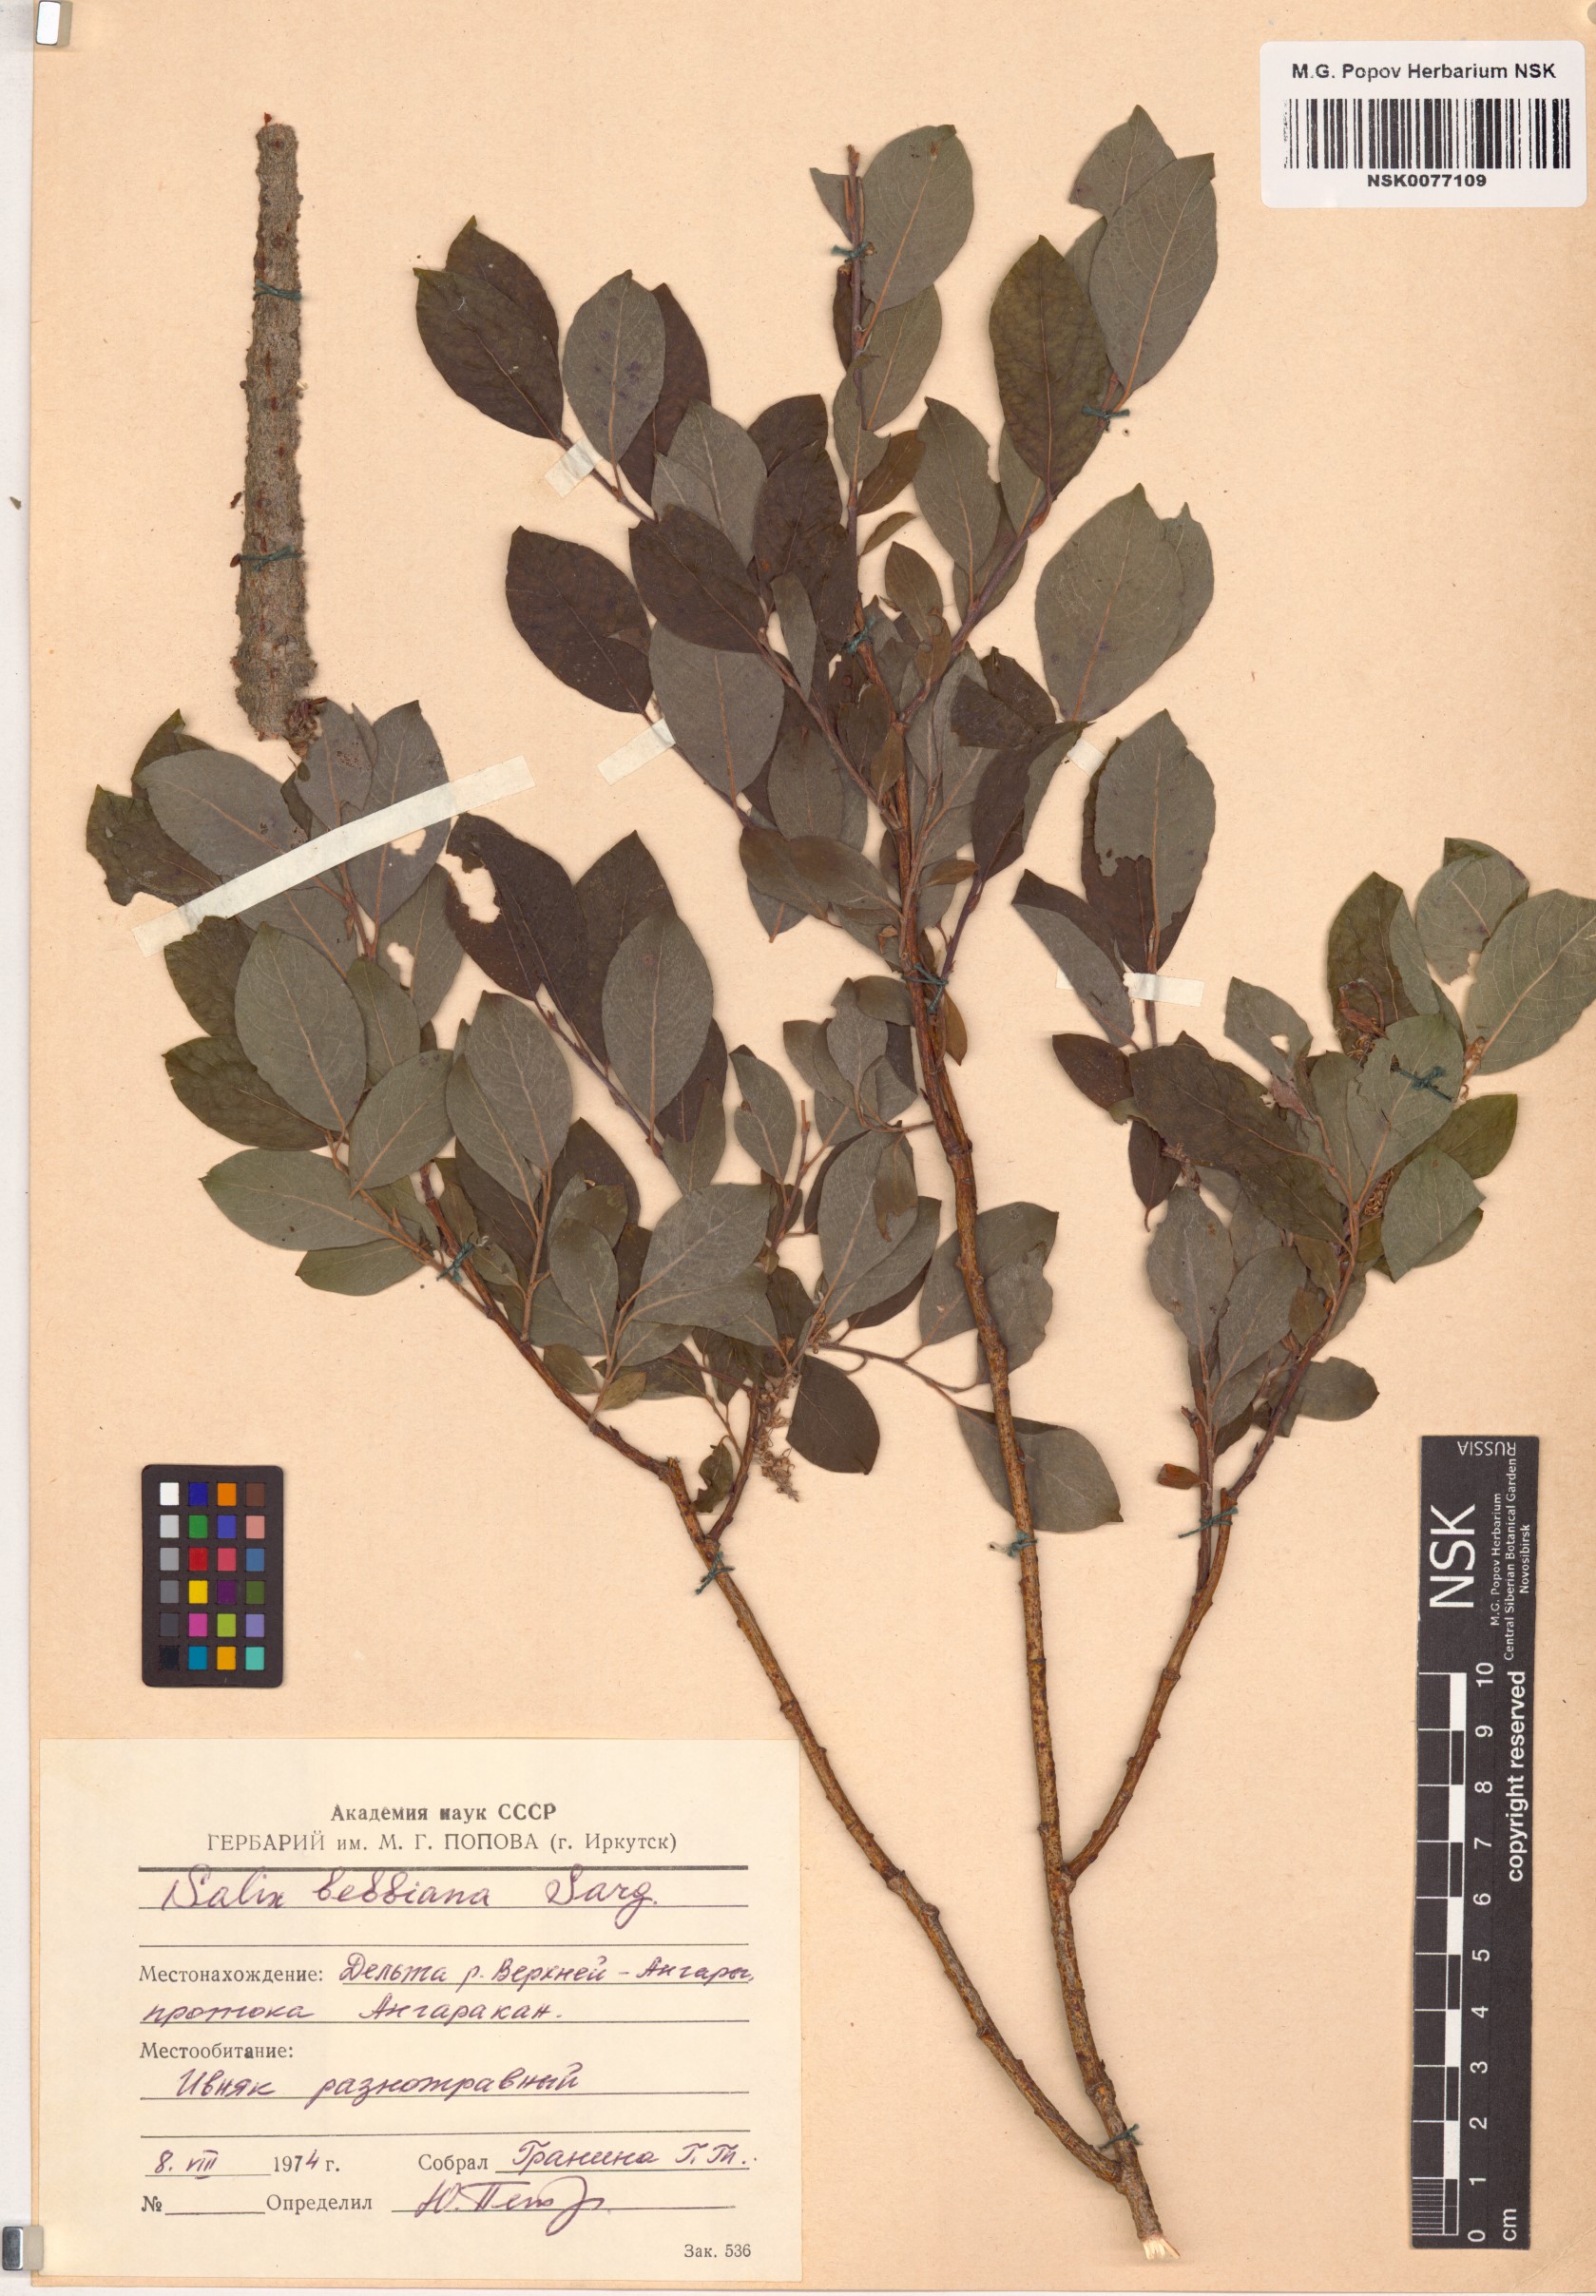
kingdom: Plantae
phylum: Tracheophyta
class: Magnoliopsida
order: Malpighiales
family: Salicaceae
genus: Salix
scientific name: Salix bebbiana
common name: Bebb's willow
